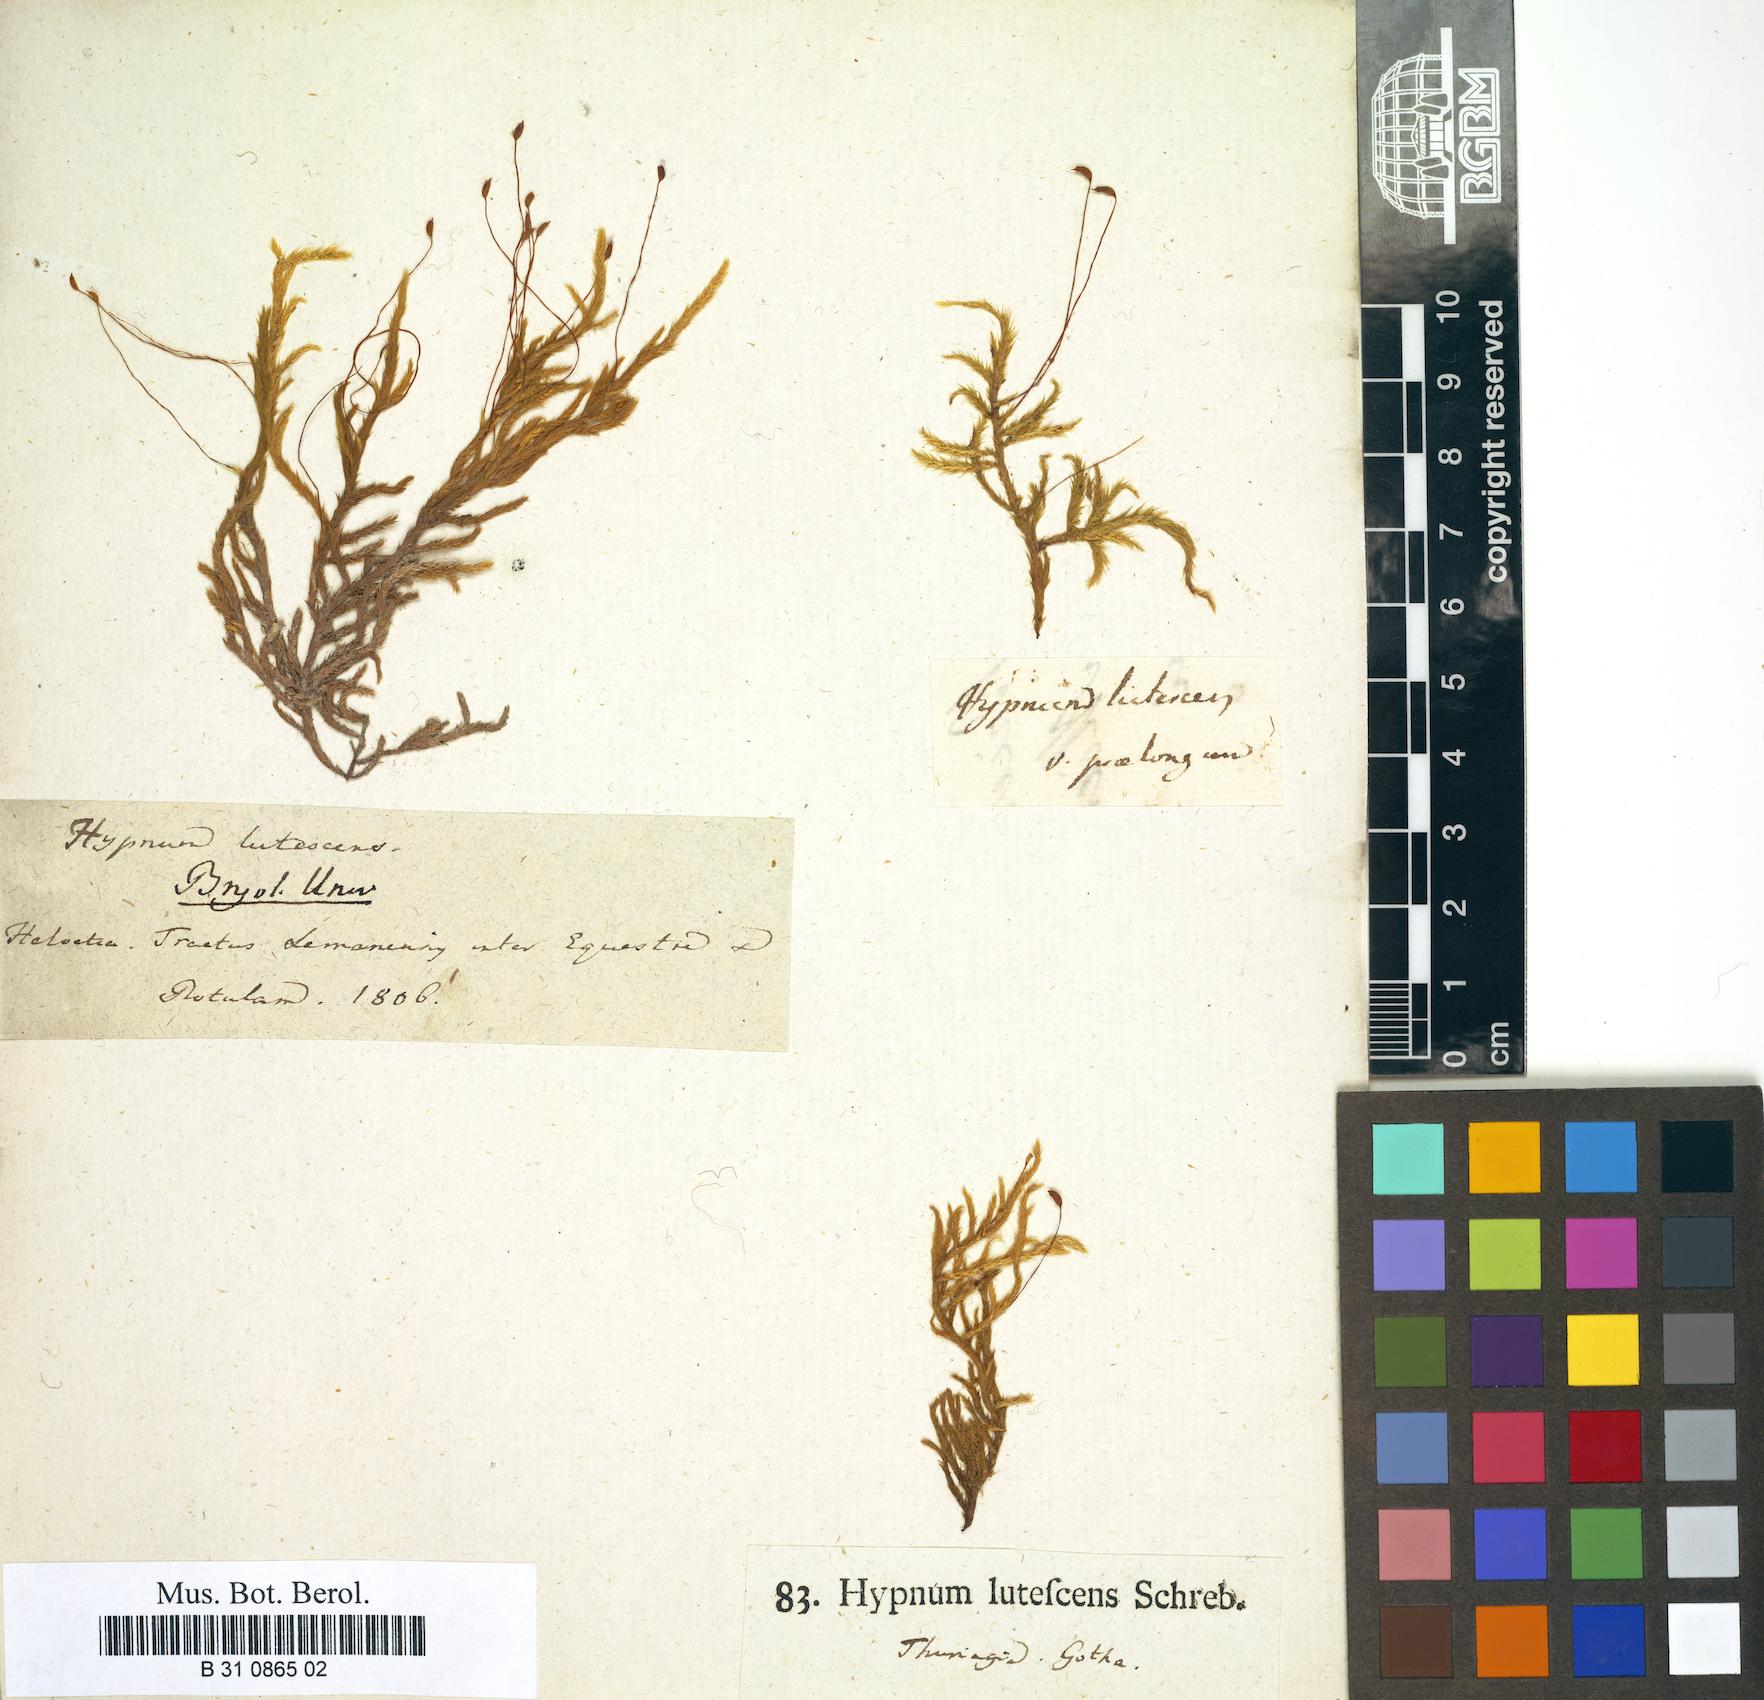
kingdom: Plantae
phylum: Bryophyta
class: Bryopsida
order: Hypnales
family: Brachytheciaceae
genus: Homalothecium
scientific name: Homalothecium lutescens
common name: Yellow feather-moss
